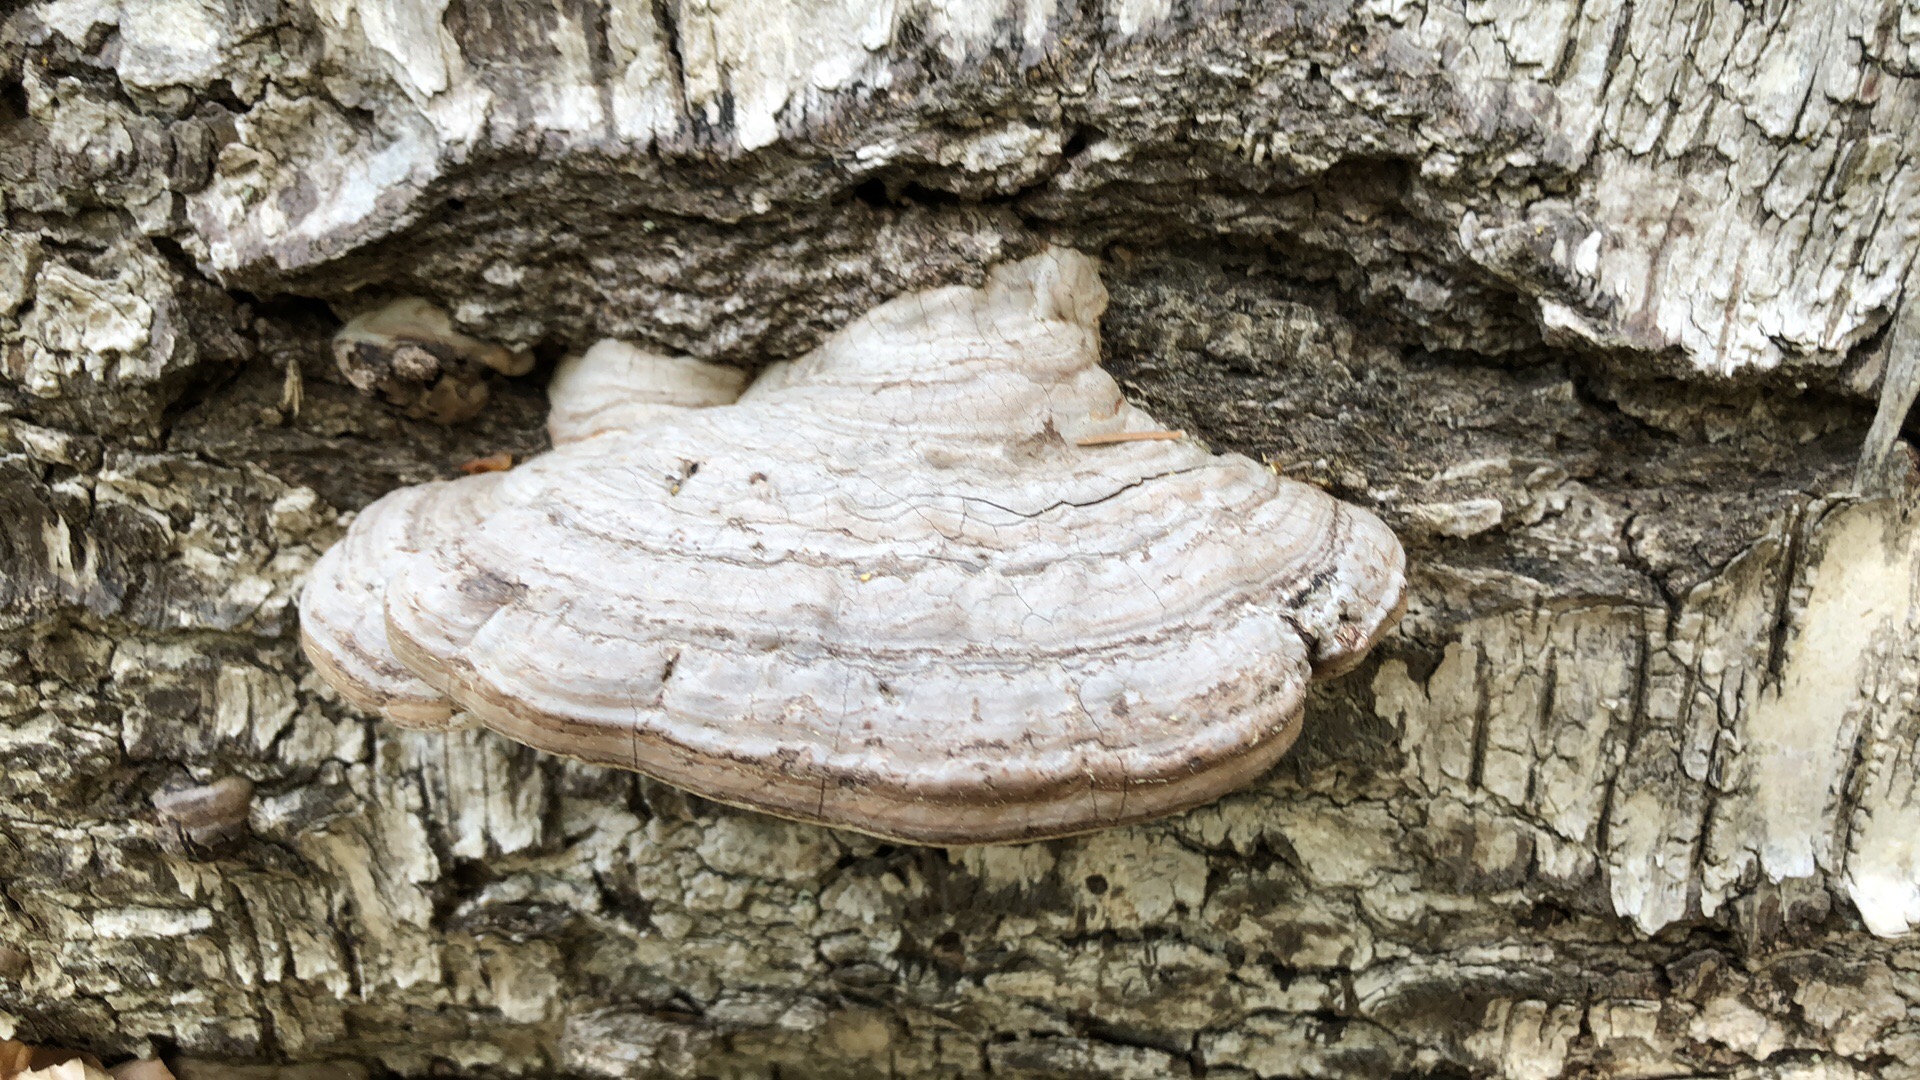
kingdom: Fungi
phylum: Basidiomycota
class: Agaricomycetes
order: Polyporales
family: Polyporaceae
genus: Ganoderma
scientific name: Ganoderma applanatum
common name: flad lakporesvamp
